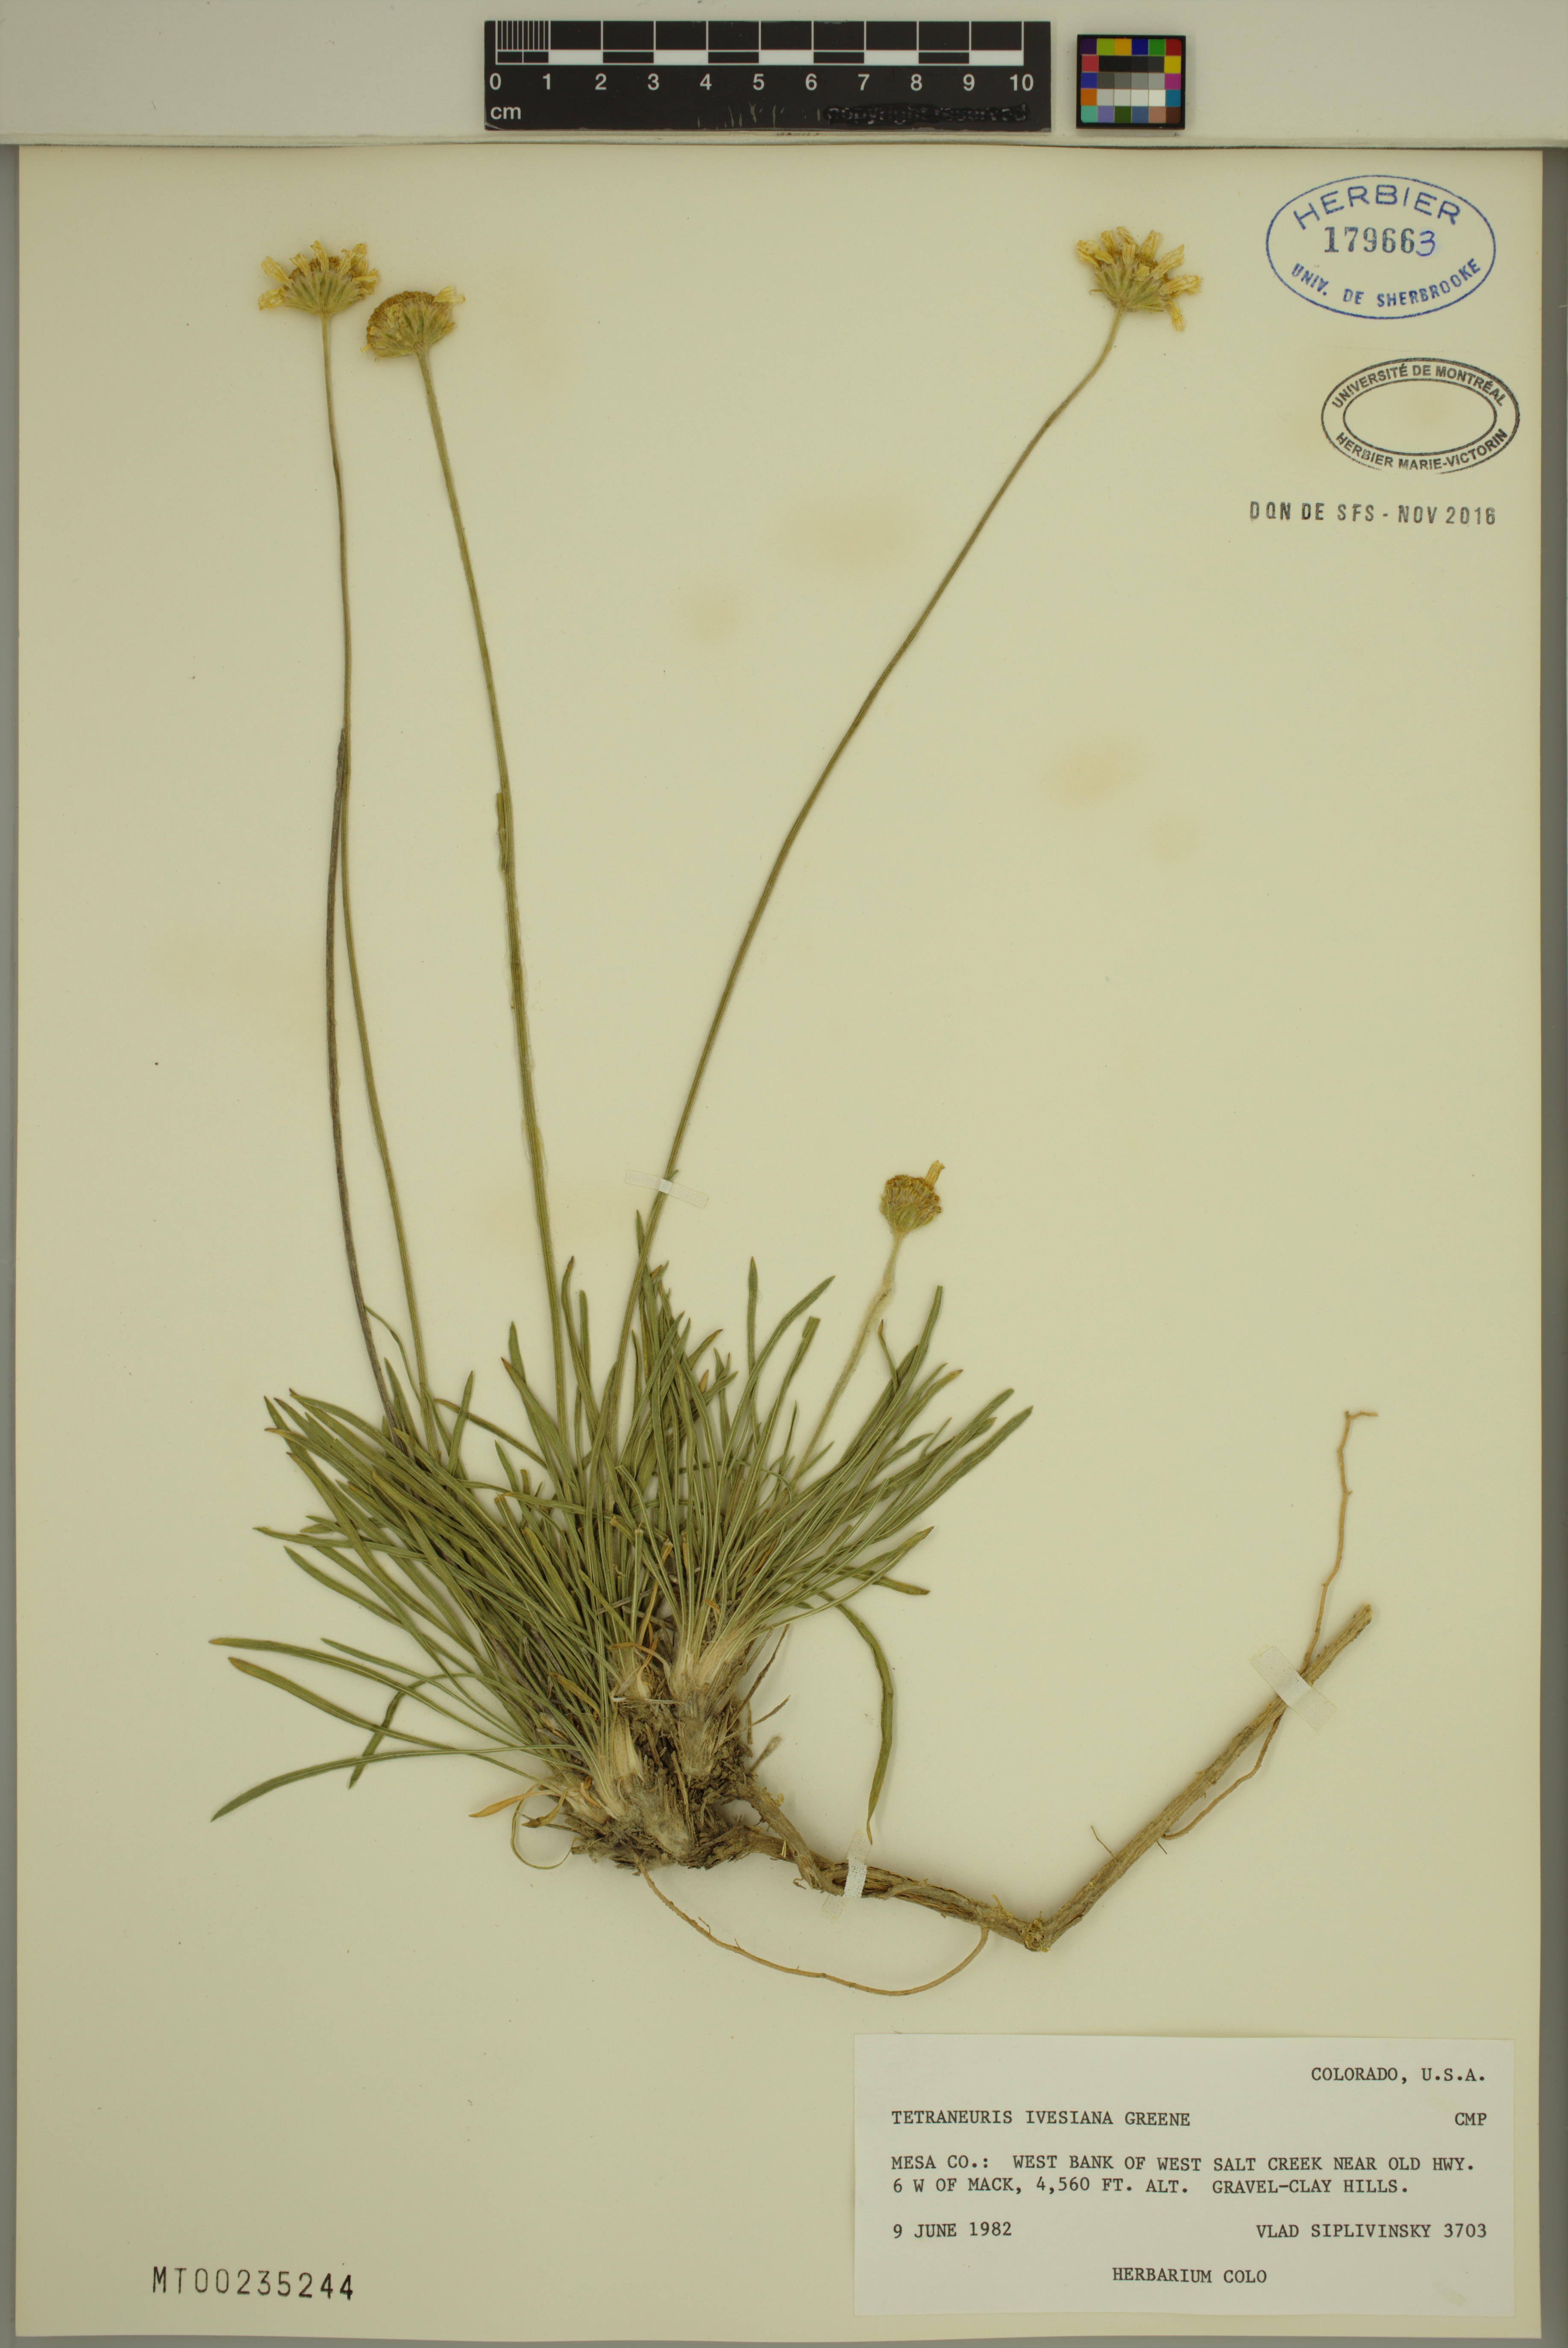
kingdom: Plantae
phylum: Tracheophyta
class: Magnoliopsida
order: Asterales
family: Asteraceae
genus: Tetraneuris
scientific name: Tetraneuris ivesiana
